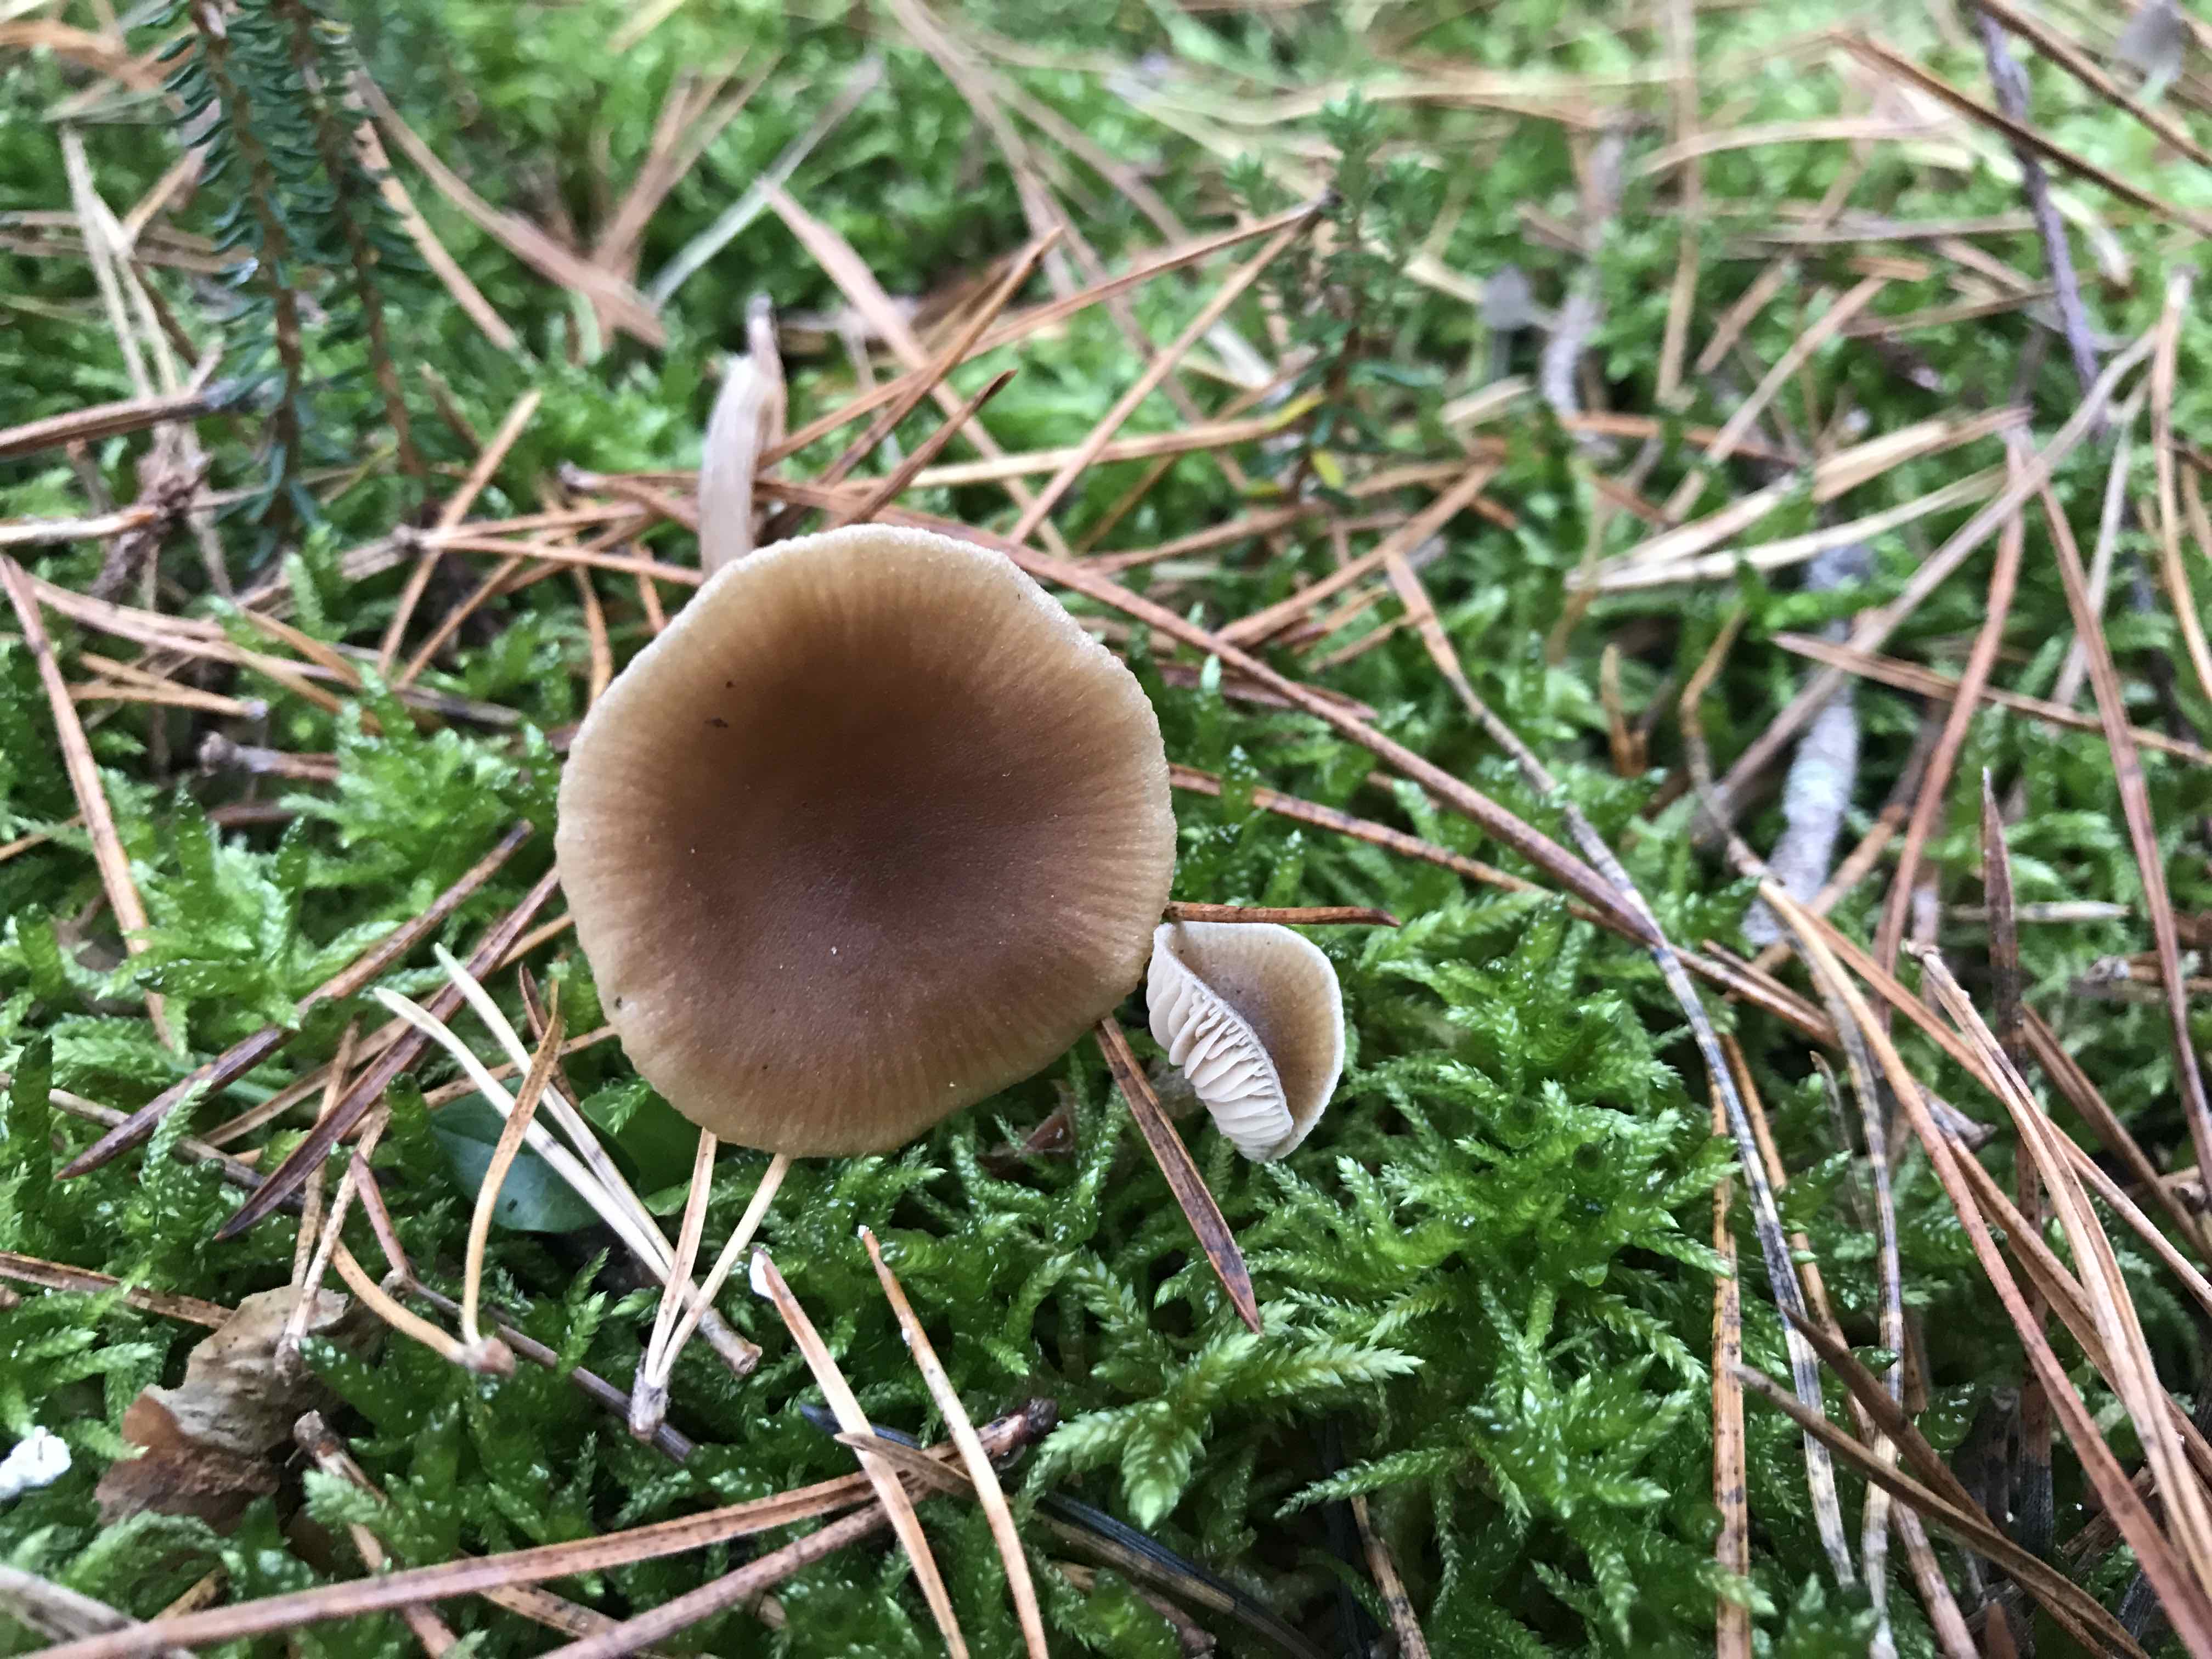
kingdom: Fungi
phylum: Basidiomycota
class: Agaricomycetes
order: Agaricales
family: Entolomataceae
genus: Entoloma
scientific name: Entoloma cetratum
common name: voks-rødblad
